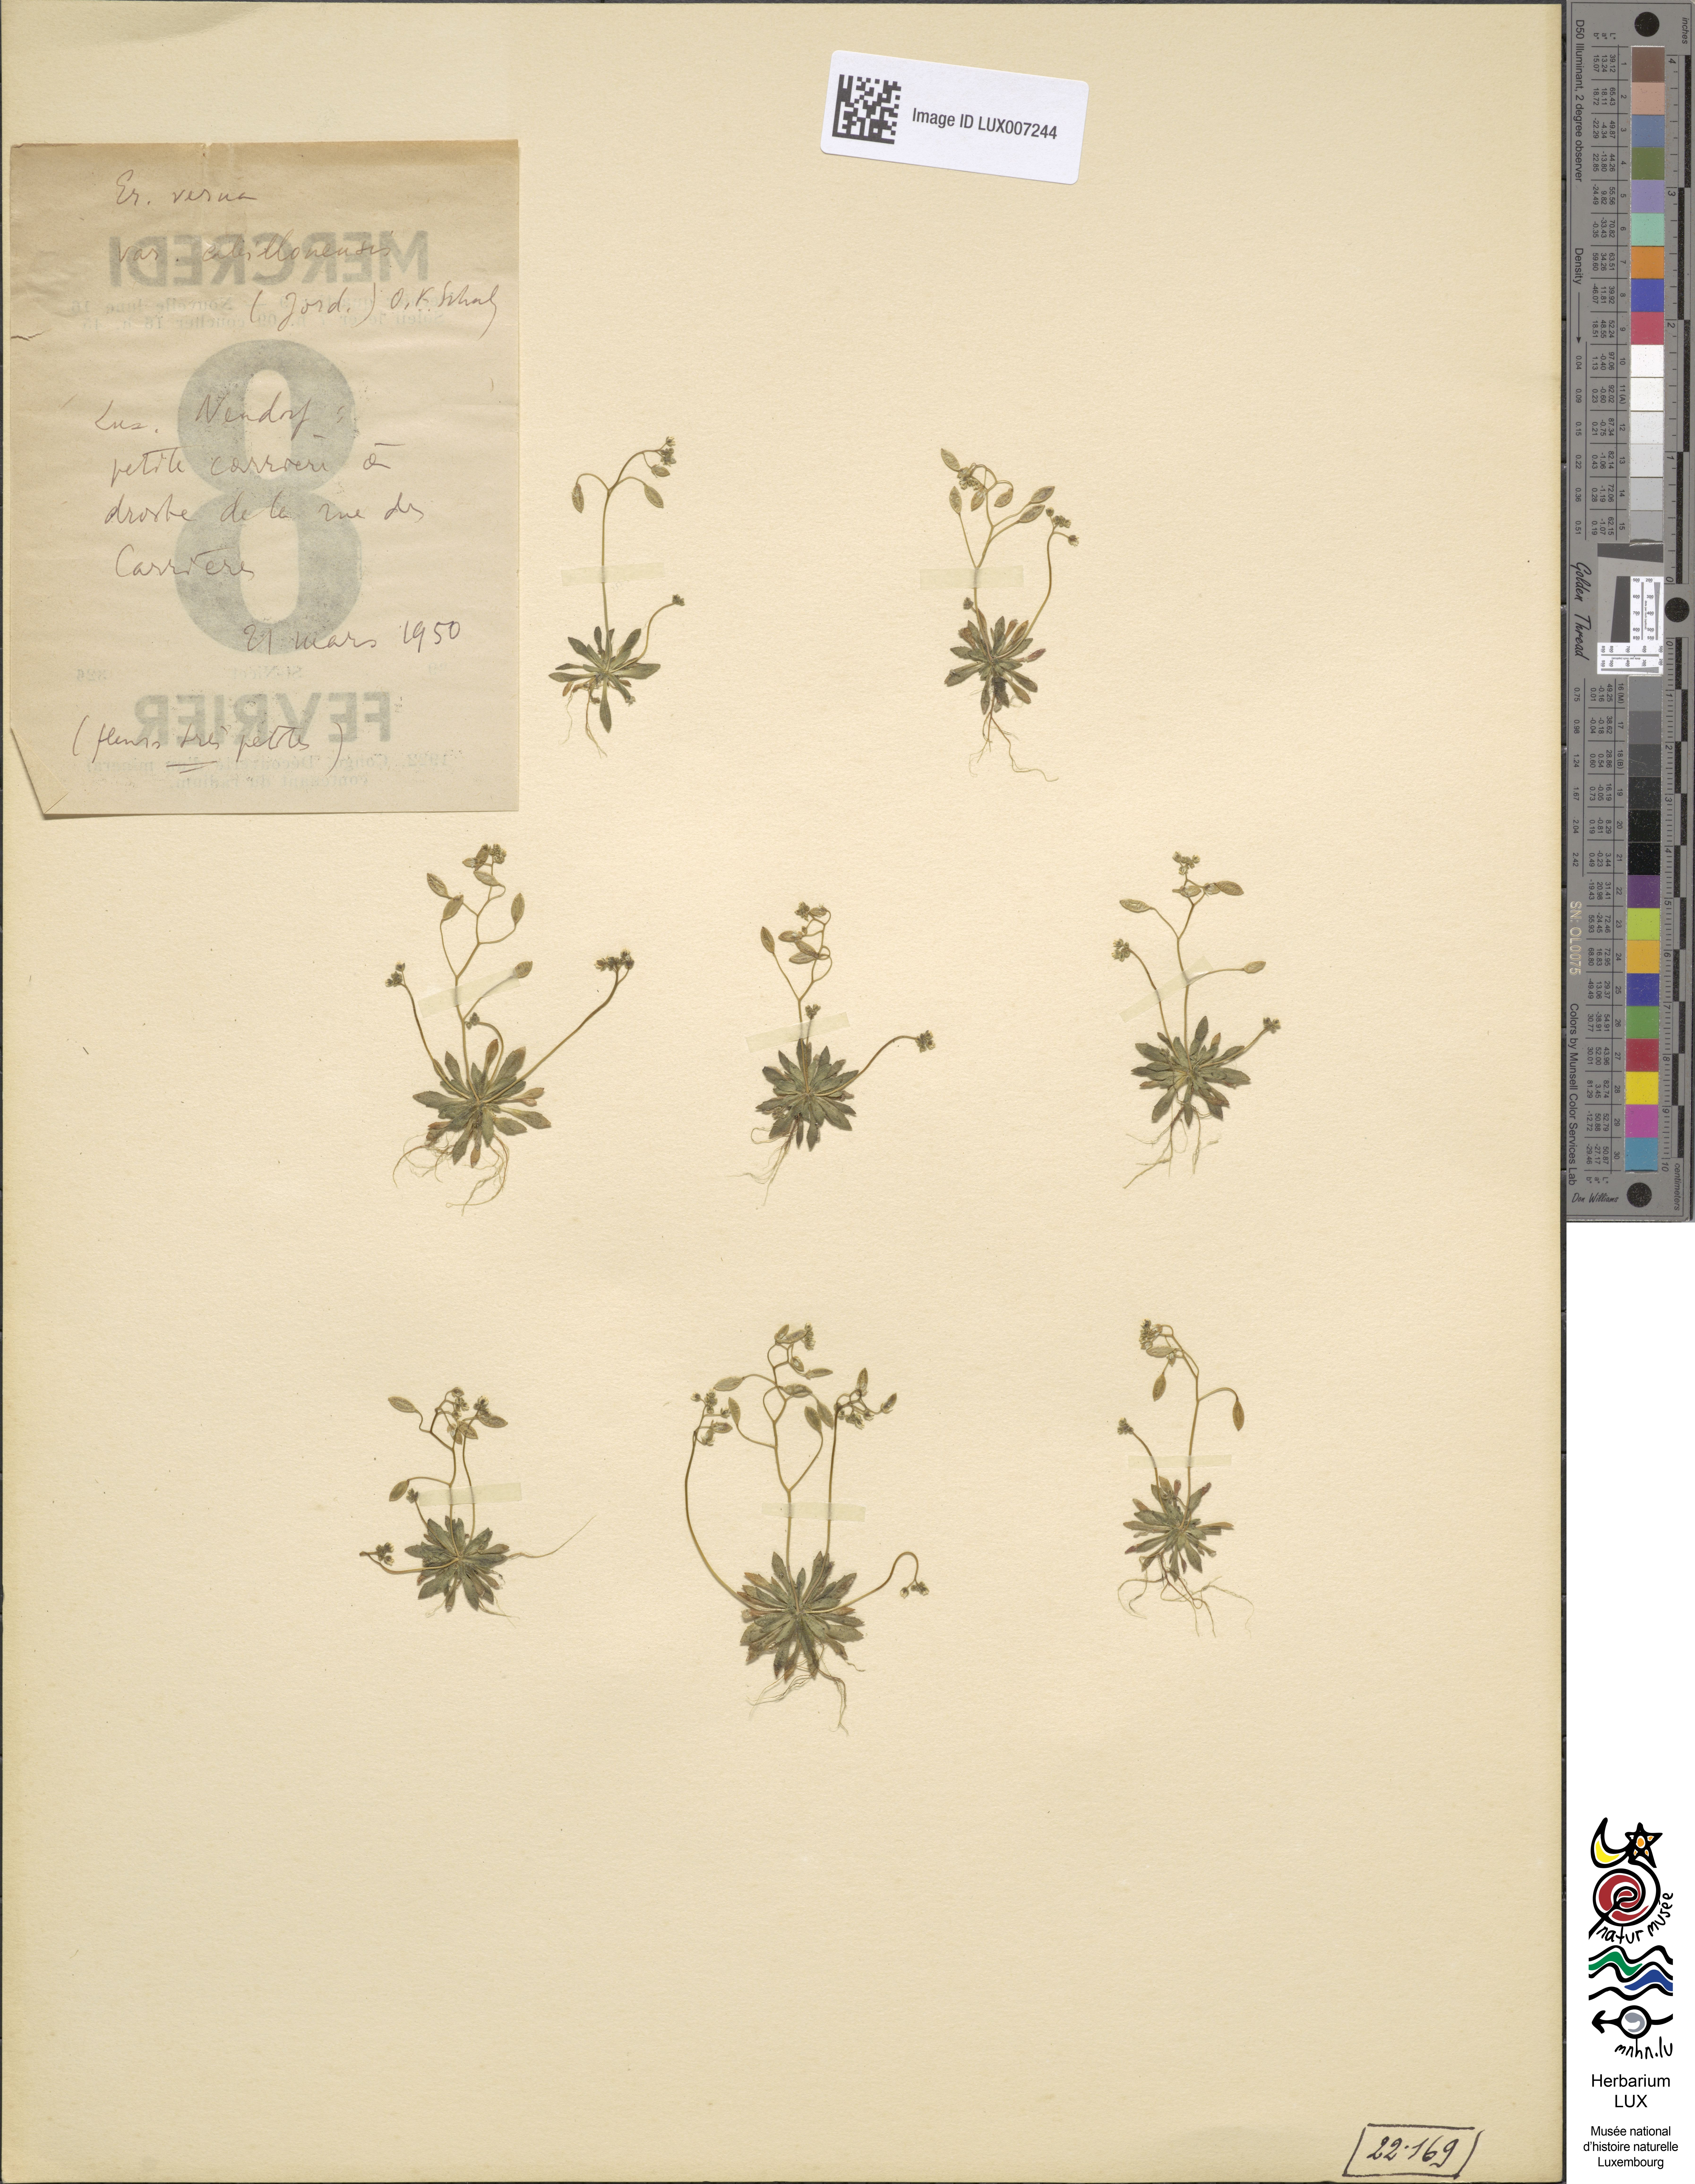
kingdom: Plantae
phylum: Tracheophyta
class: Magnoliopsida
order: Brassicales
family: Brassicaceae
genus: Draba
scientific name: Draba verna
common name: Spring draba
